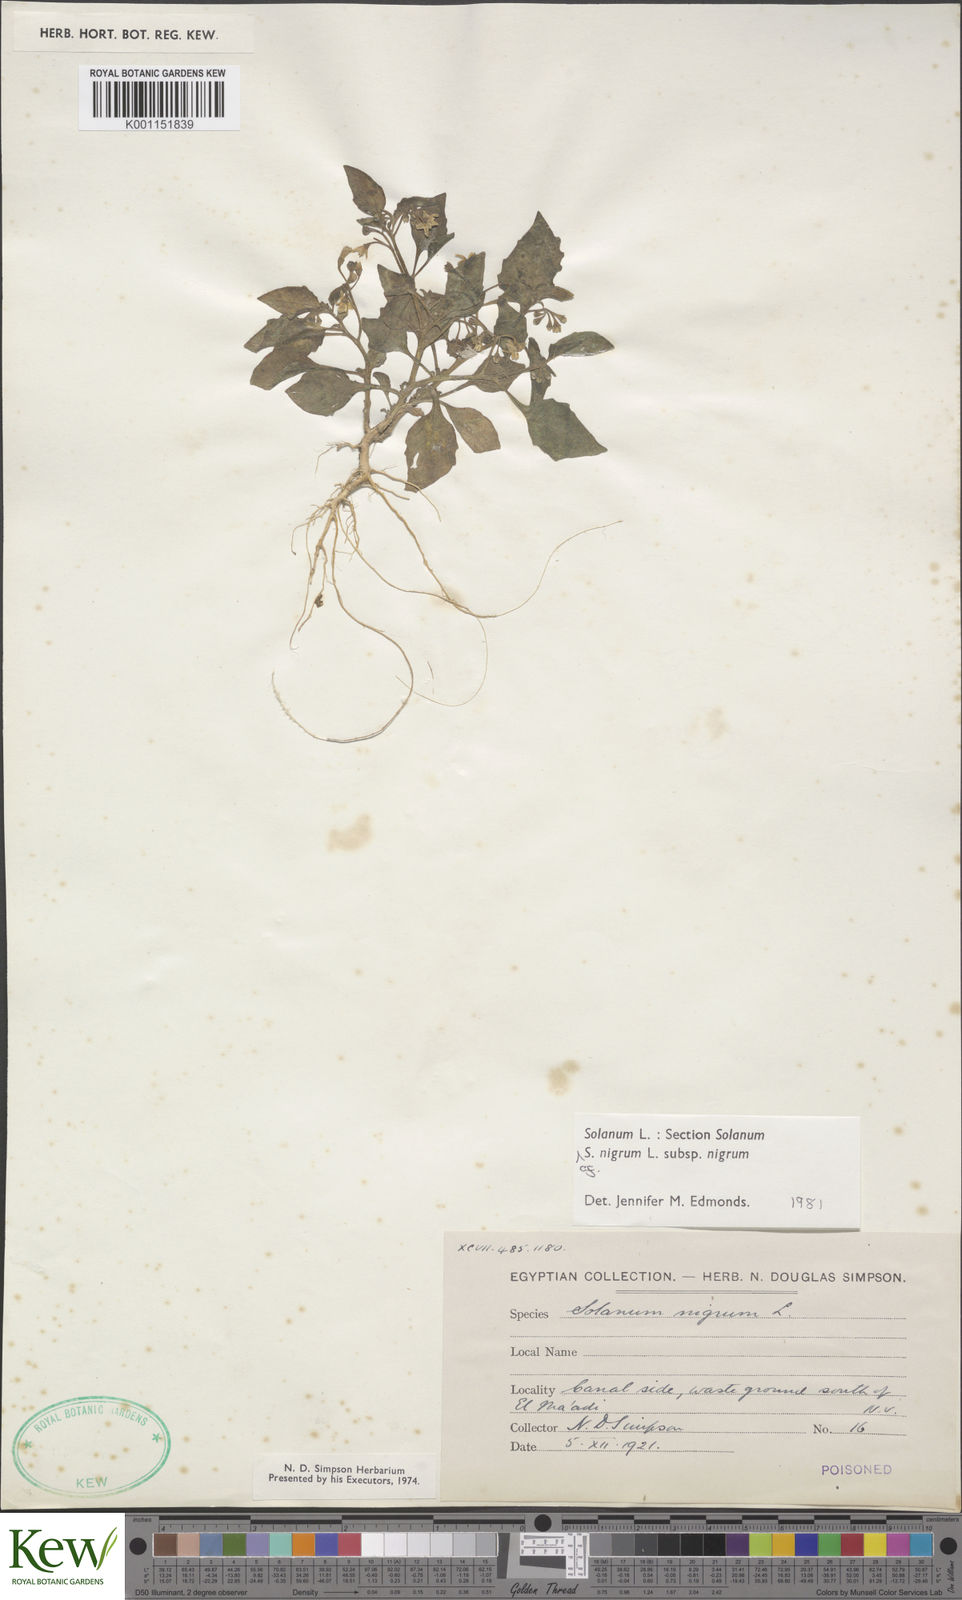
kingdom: Plantae
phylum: Tracheophyta
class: Magnoliopsida
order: Solanales
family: Solanaceae
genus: Solanum
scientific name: Solanum
